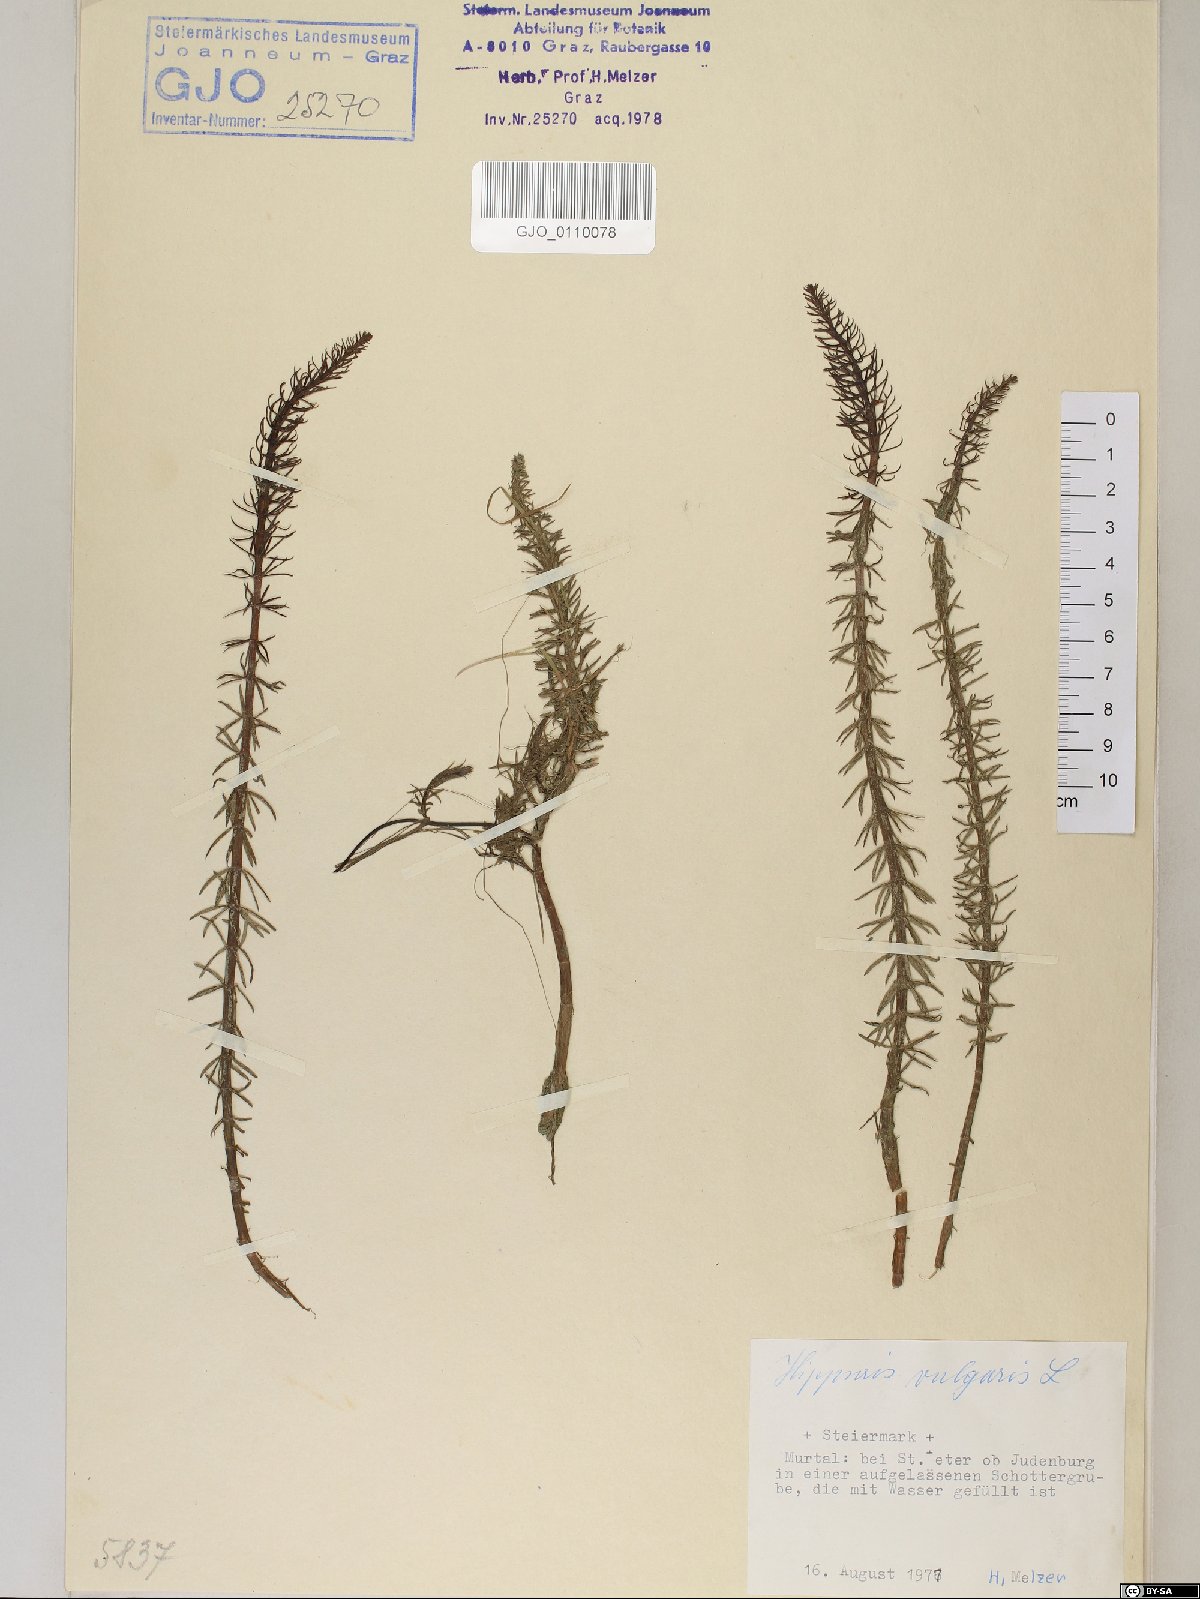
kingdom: Plantae
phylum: Tracheophyta
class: Magnoliopsida
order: Lamiales
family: Plantaginaceae
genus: Hippuris
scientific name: Hippuris vulgaris
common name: Mare's-tail
